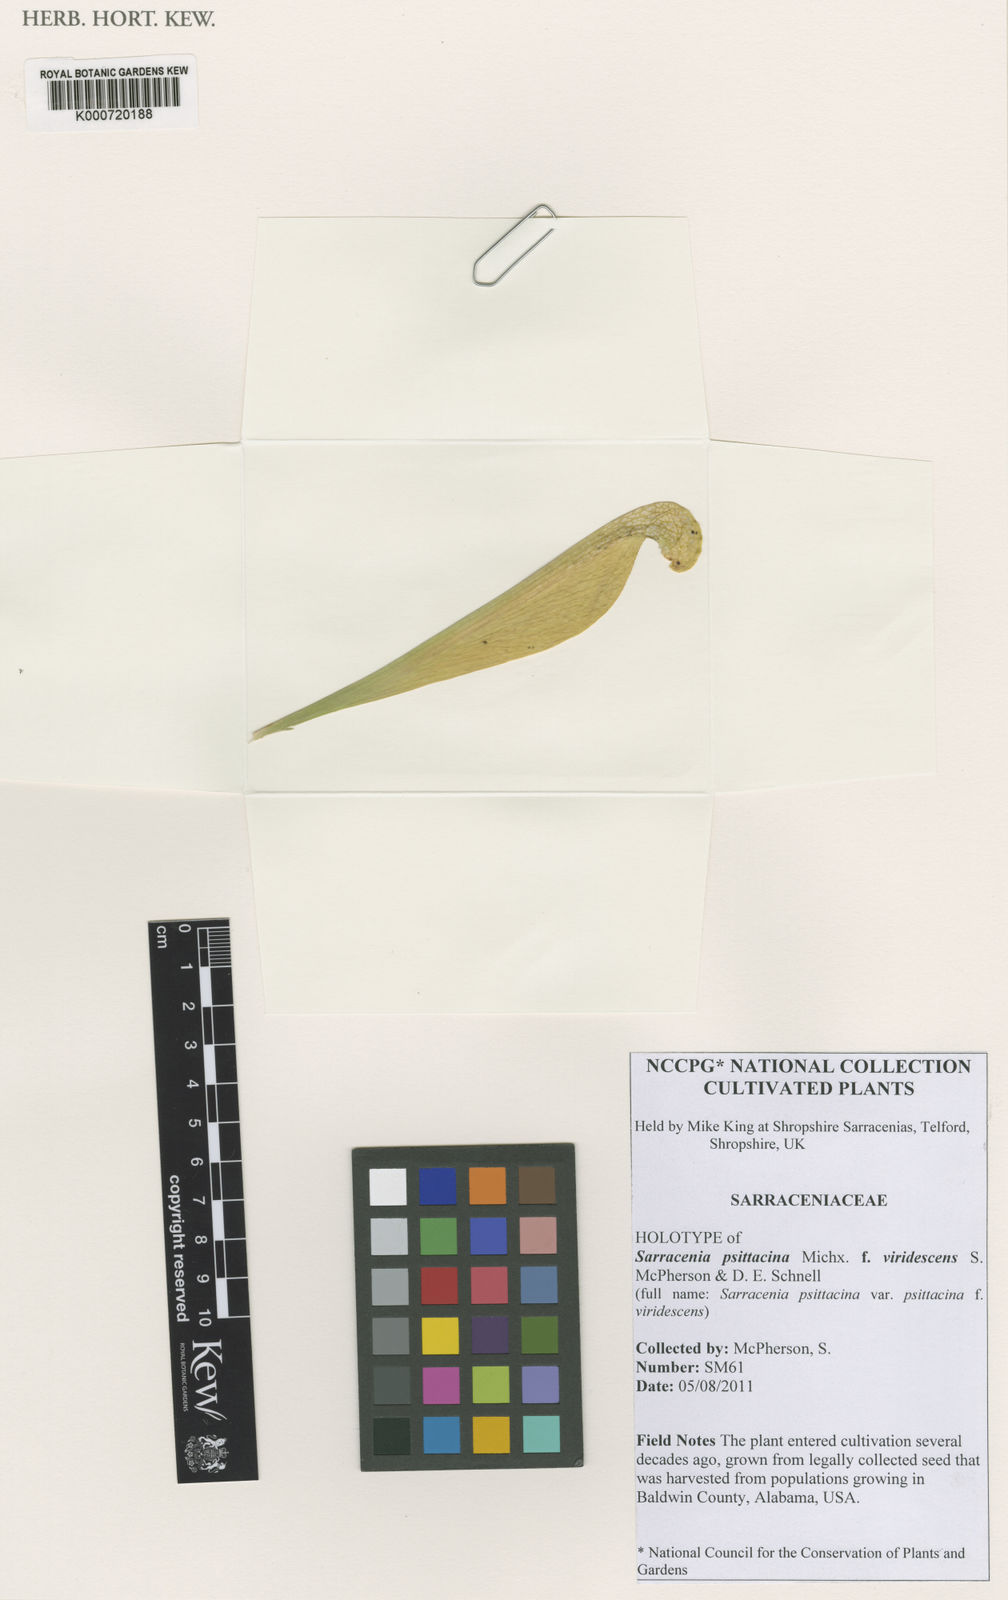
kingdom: Plantae
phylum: Tracheophyta
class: Magnoliopsida
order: Ericales
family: Sarraceniaceae
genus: Sarracenia
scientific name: Sarracenia psittacina
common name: Parrot pitcherplant
